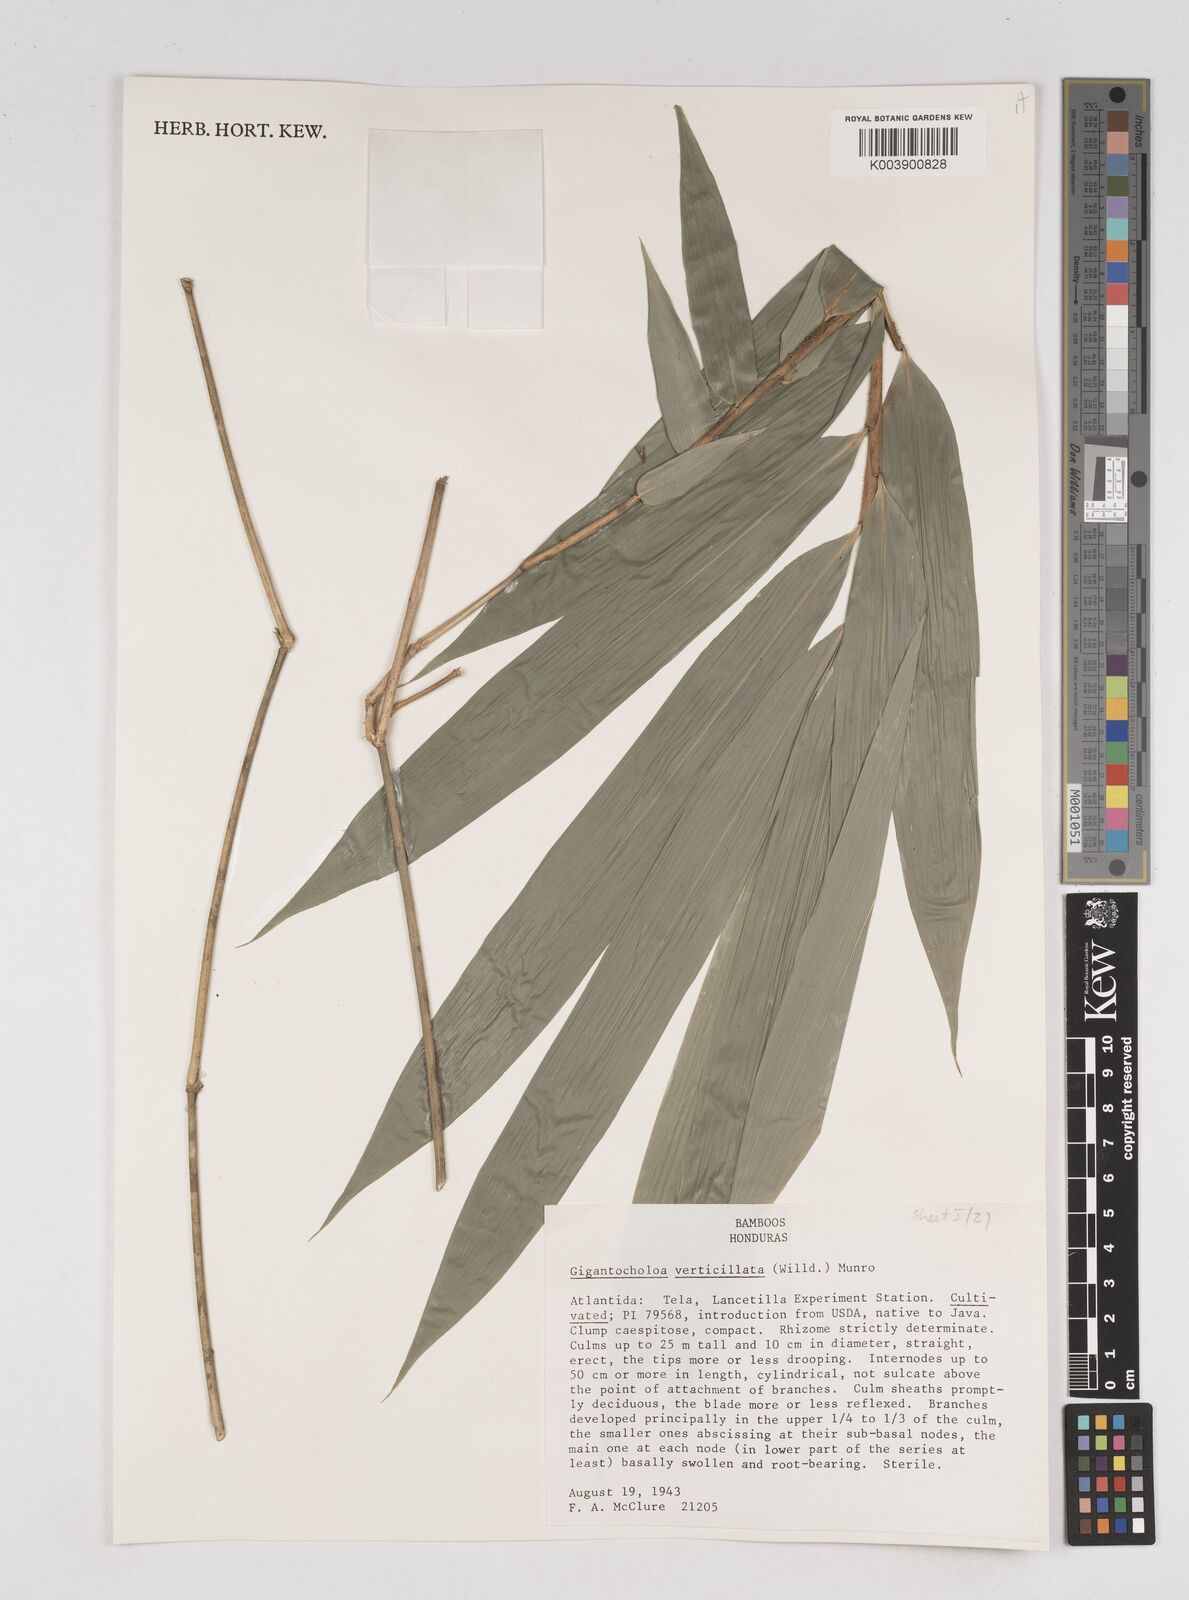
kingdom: Plantae
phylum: Tracheophyta
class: Liliopsida
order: Poales
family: Poaceae
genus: Gigantochloa
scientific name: Gigantochloa verticillata
